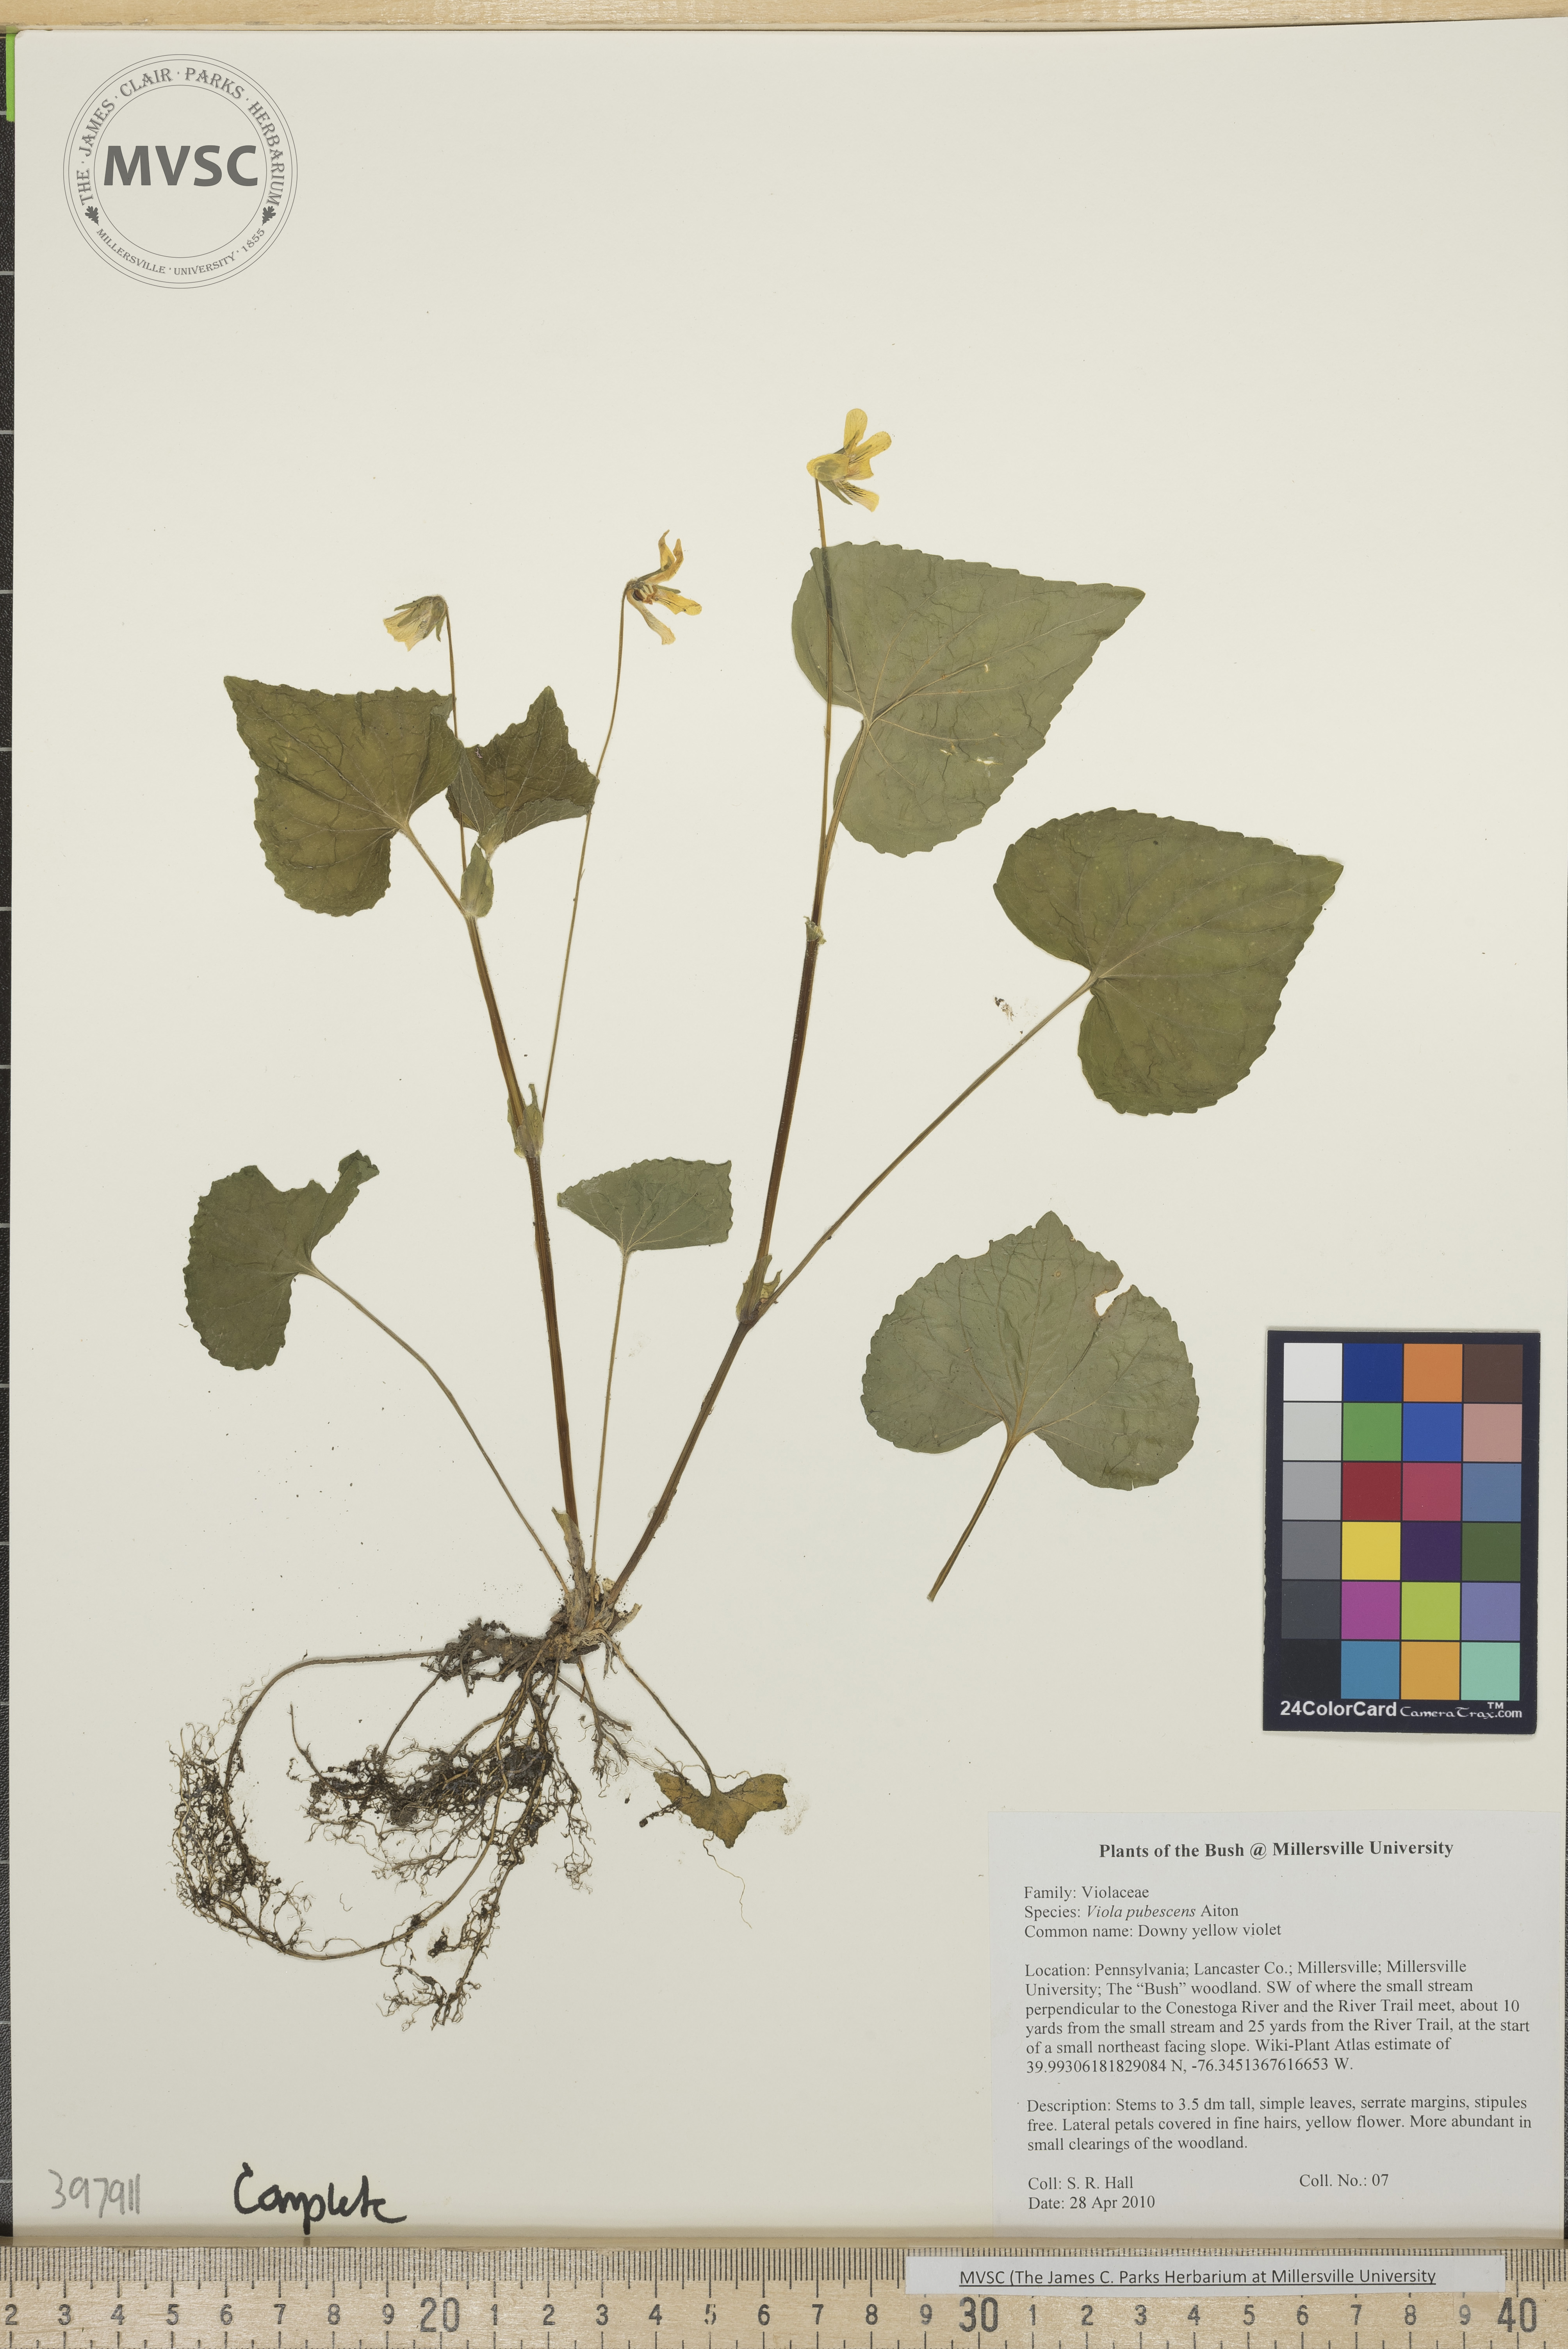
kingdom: Plantae
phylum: Tracheophyta
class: Magnoliopsida
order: Malpighiales
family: Violaceae
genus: Viola
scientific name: Viola pubescens
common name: downy yellow violet
